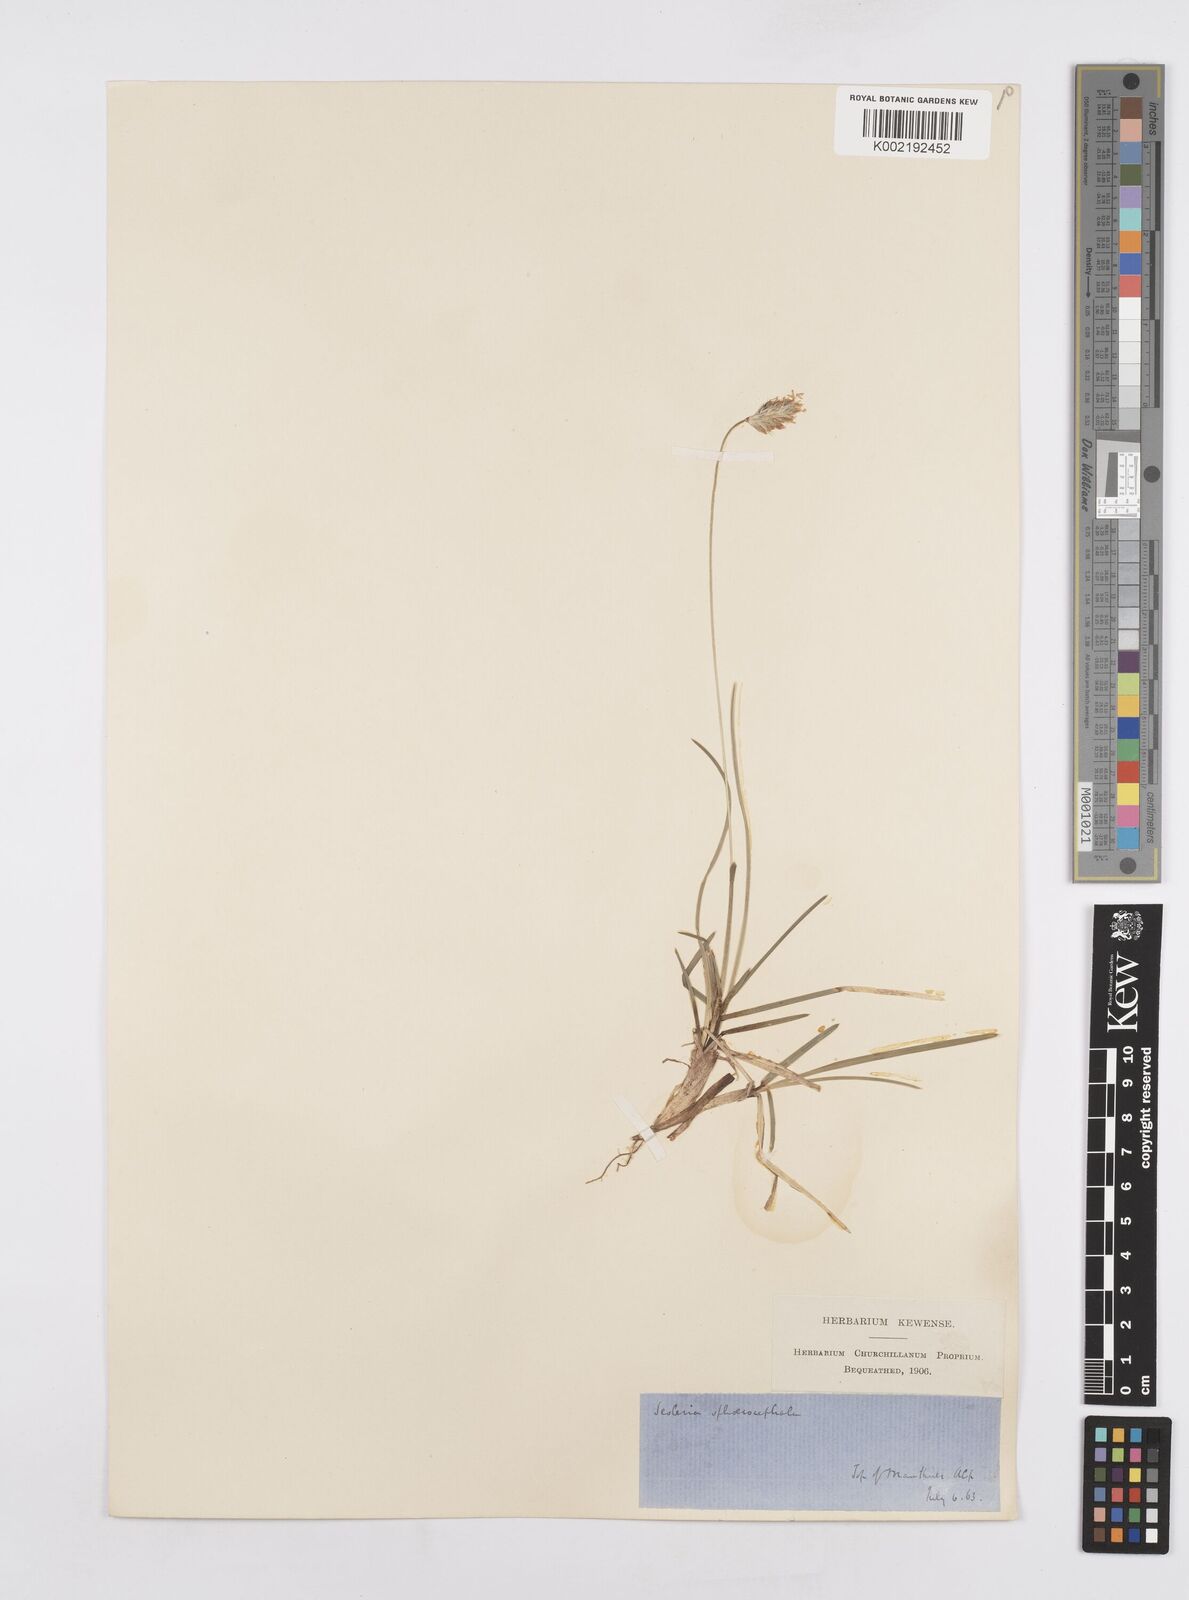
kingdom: Plantae
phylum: Tracheophyta
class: Liliopsida
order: Poales
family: Poaceae
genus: Sesleriella
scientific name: Sesleriella sphaerocephala
